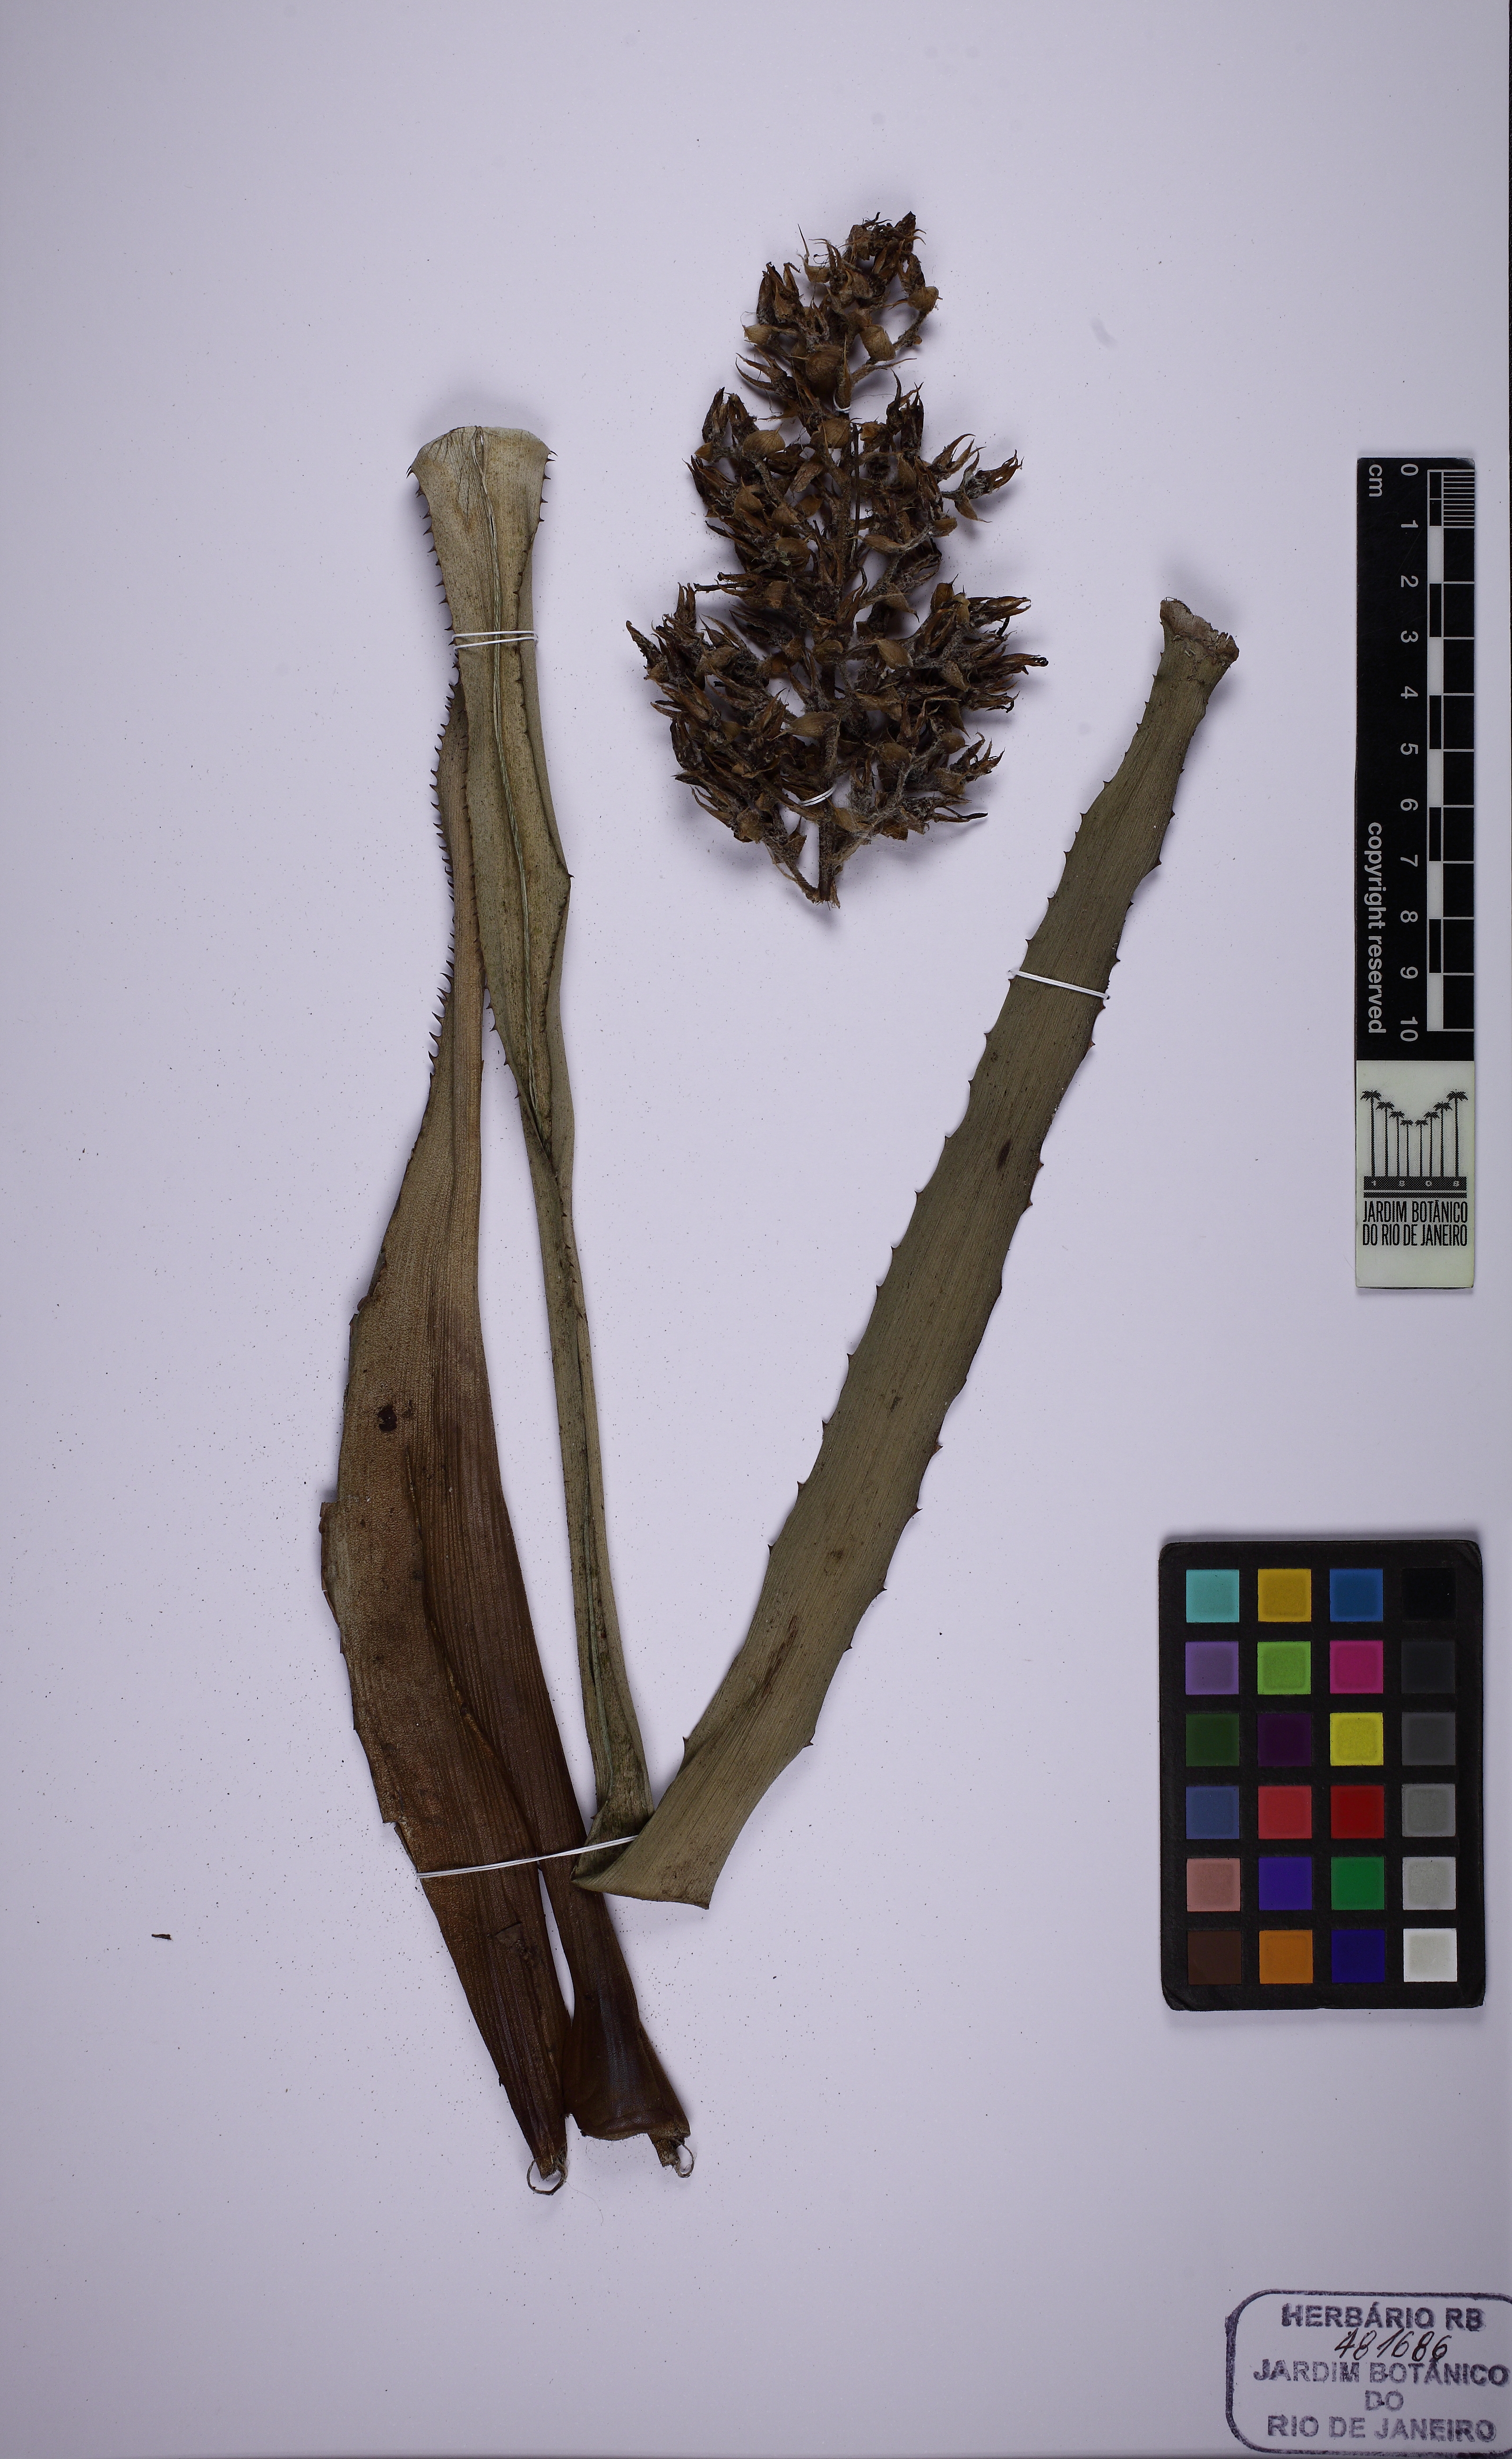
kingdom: Plantae
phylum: Tracheophyta
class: Liliopsida
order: Poales
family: Bromeliaceae
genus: Aechmea
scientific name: Aechmea araneosa
